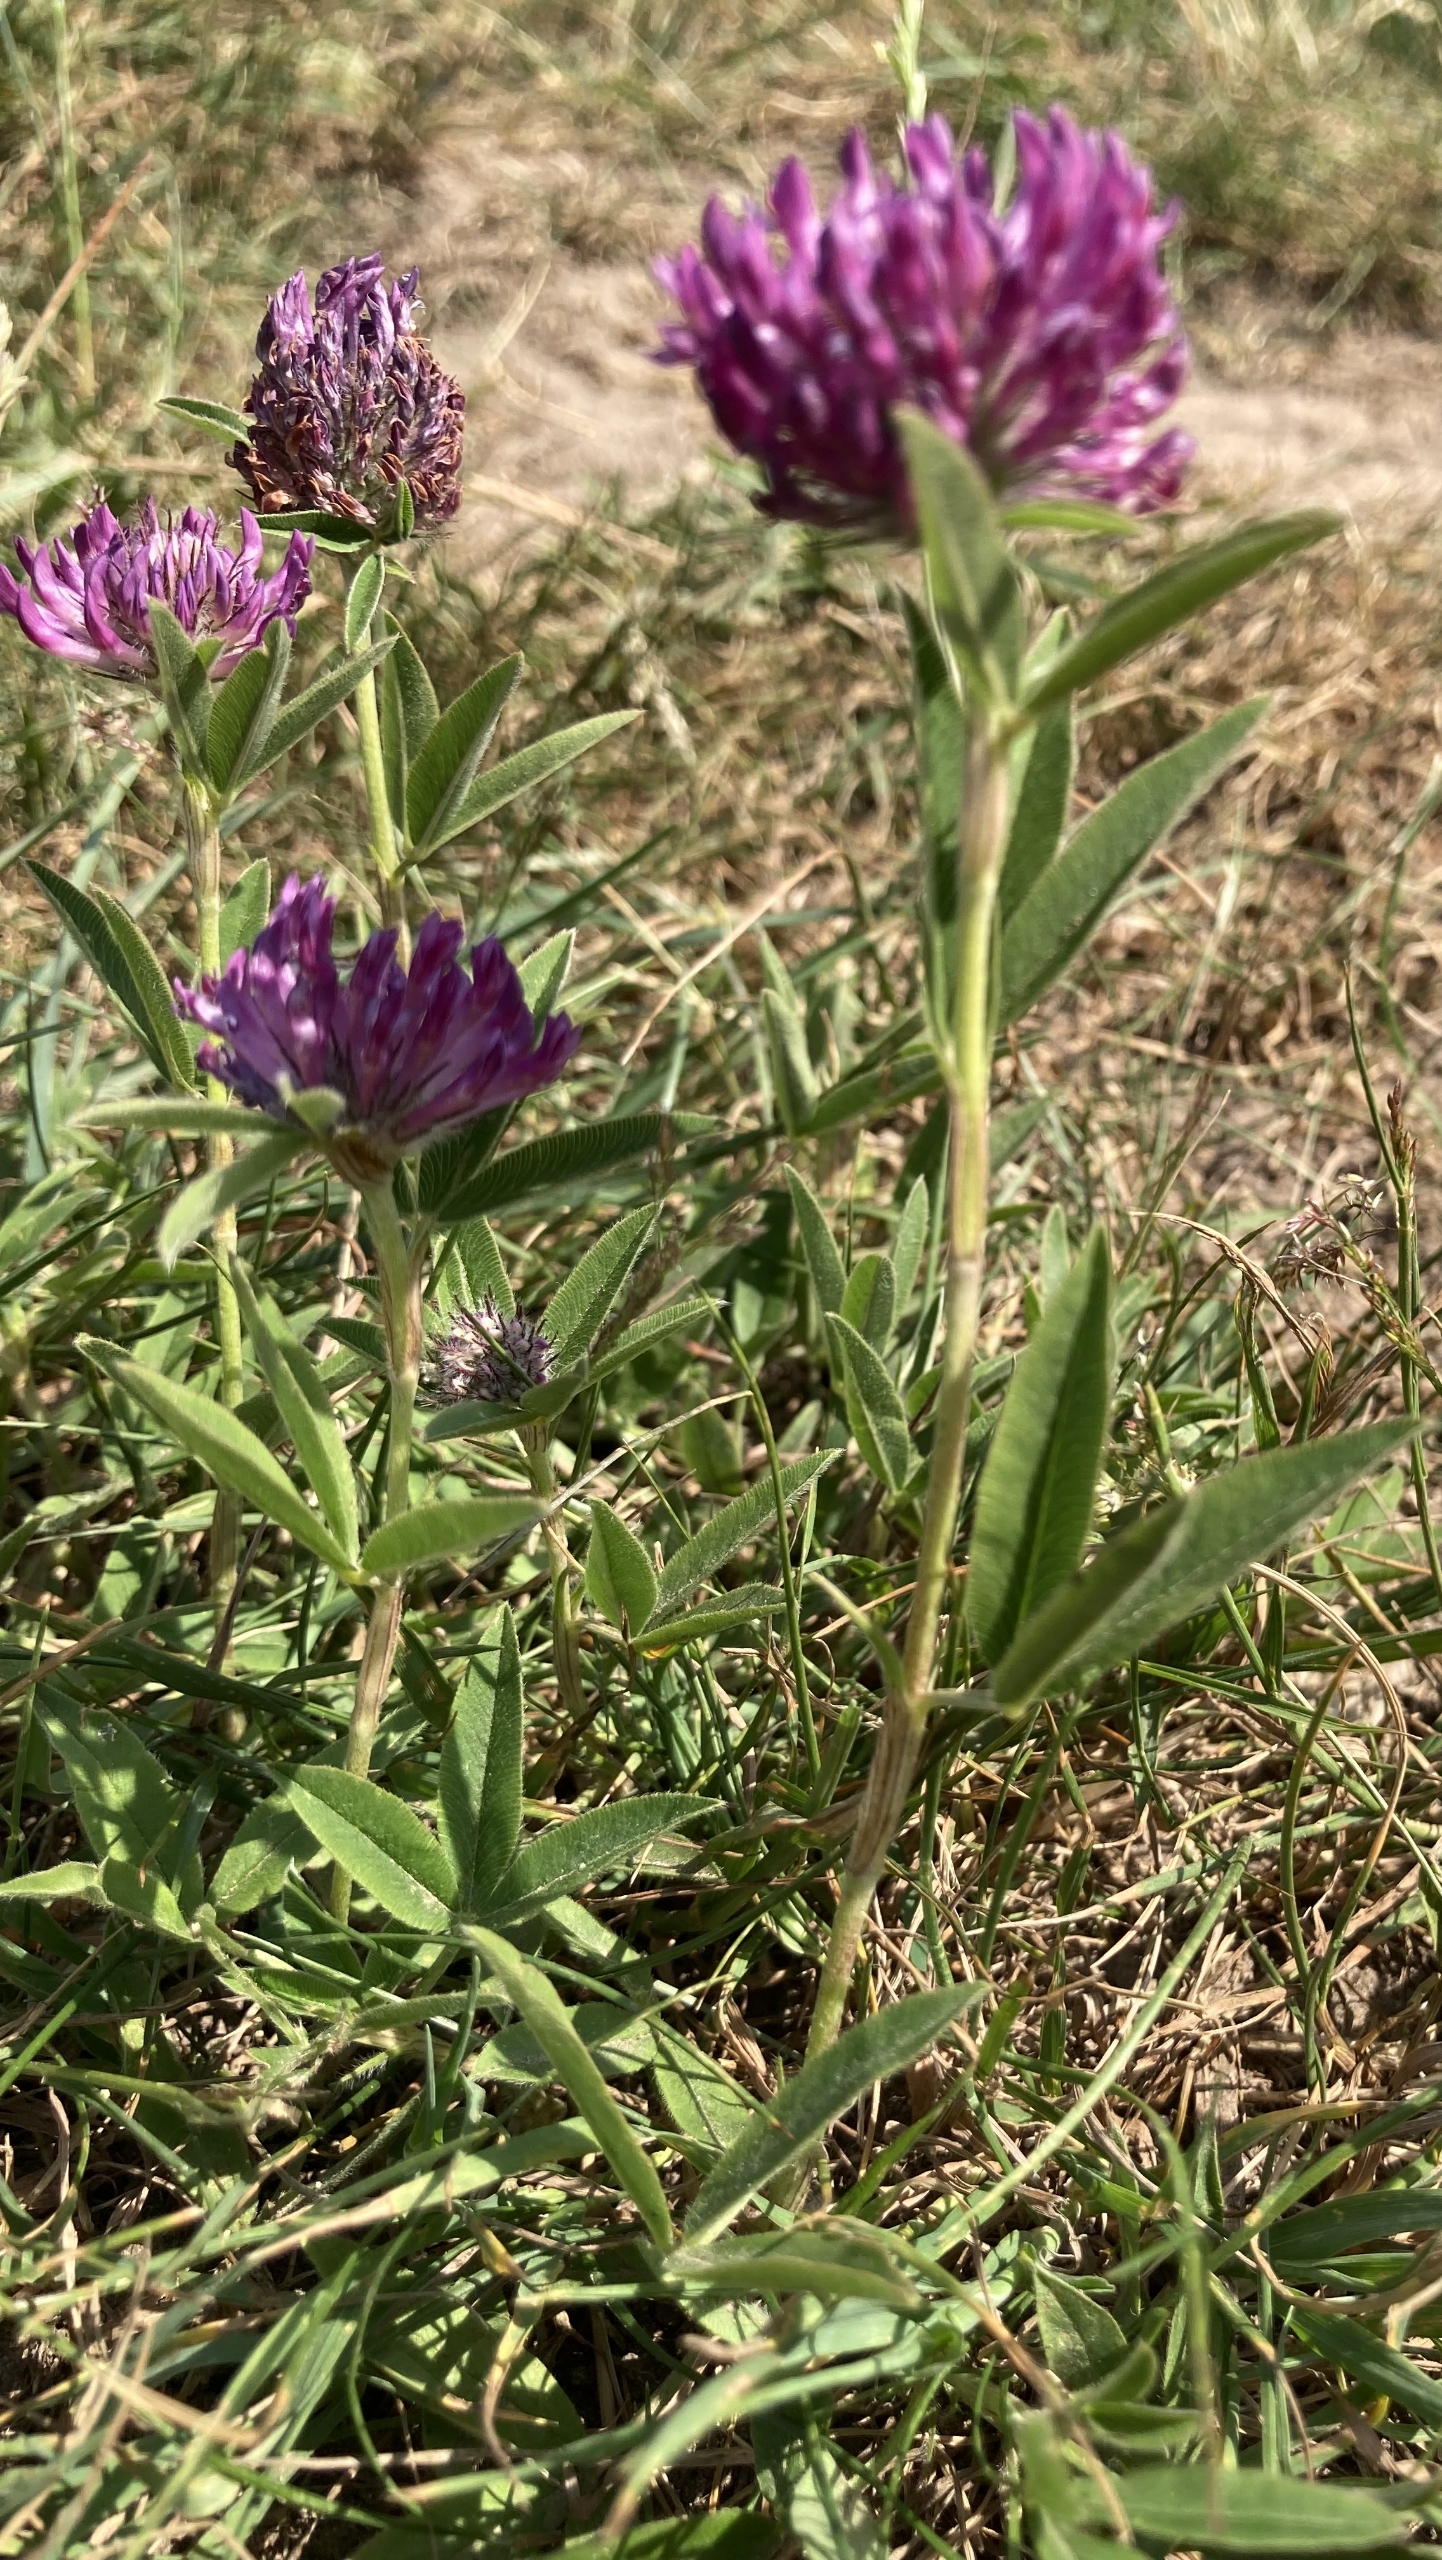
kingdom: Plantae
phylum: Tracheophyta
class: Magnoliopsida
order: Fabales
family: Fabaceae
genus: Trifolium
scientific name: Trifolium alpestre
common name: Skov-kløver
